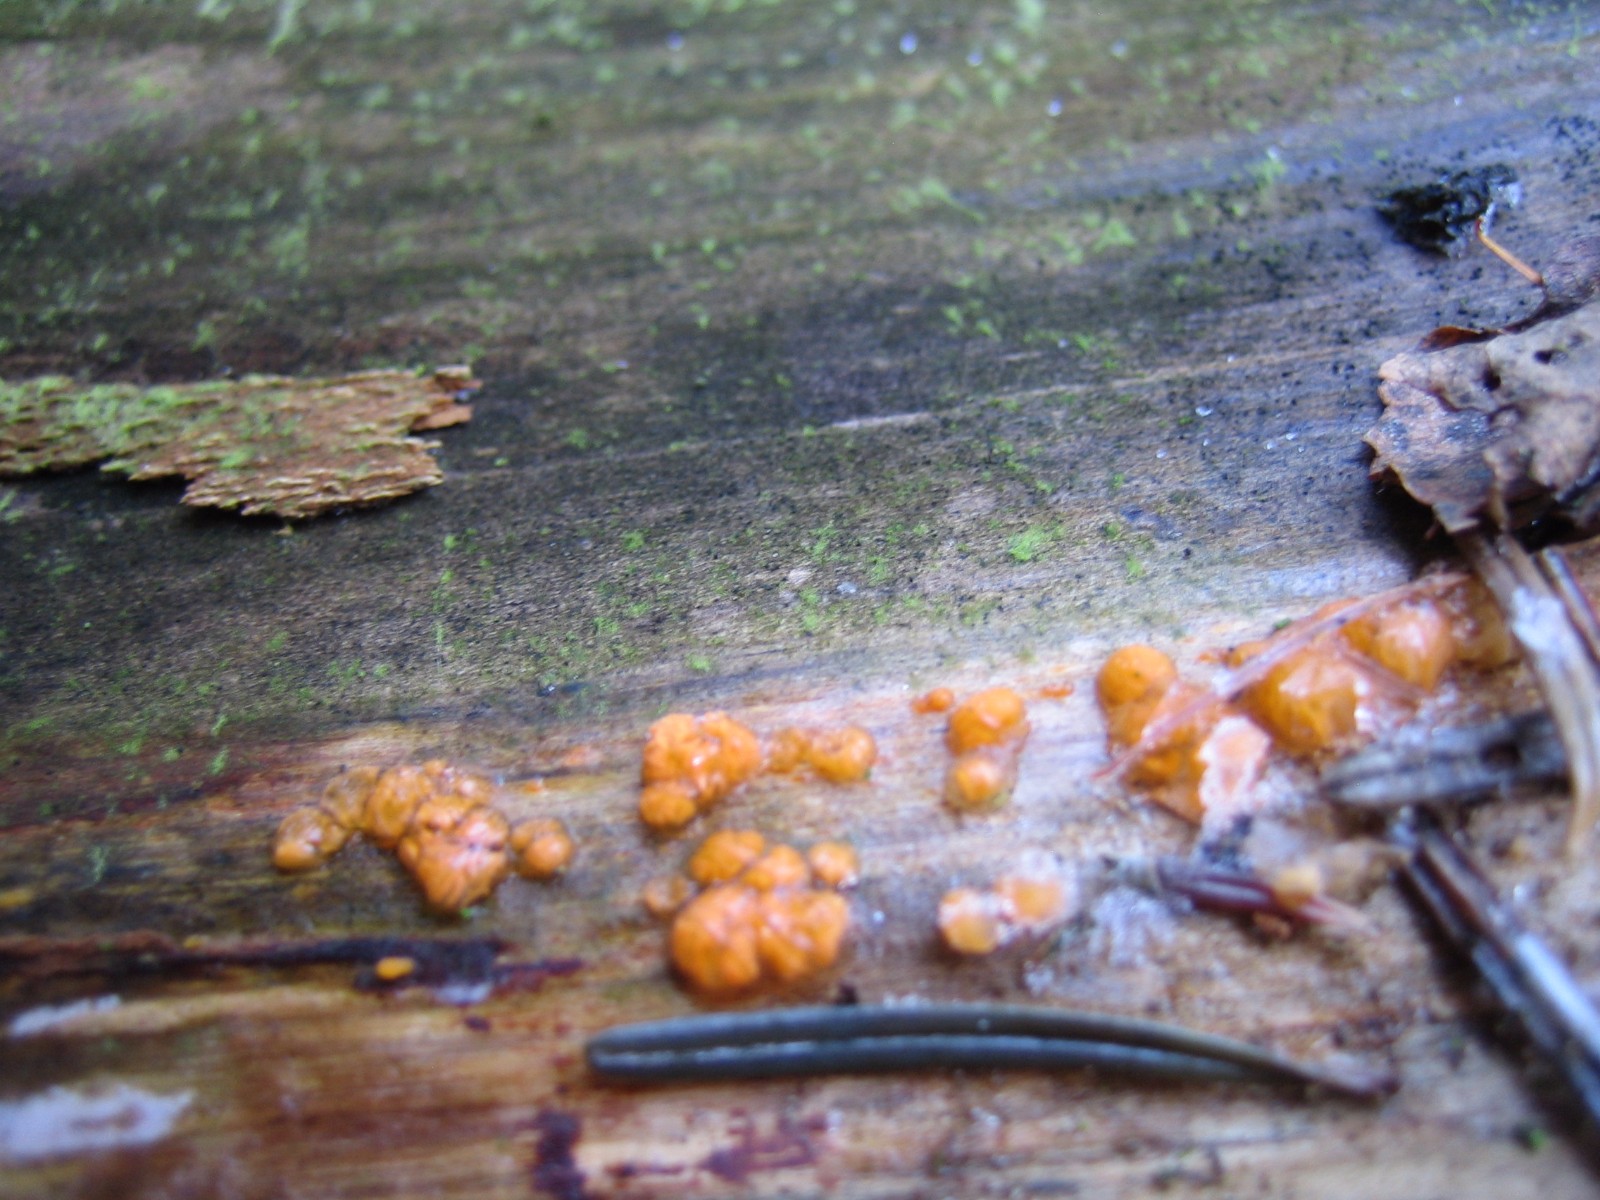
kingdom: Fungi
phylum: Basidiomycota
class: Dacrymycetes
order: Dacrymycetales
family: Dacrymycetaceae
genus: Dacrymyces
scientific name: Dacrymyces stillatus
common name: almindelig tåresvamp
